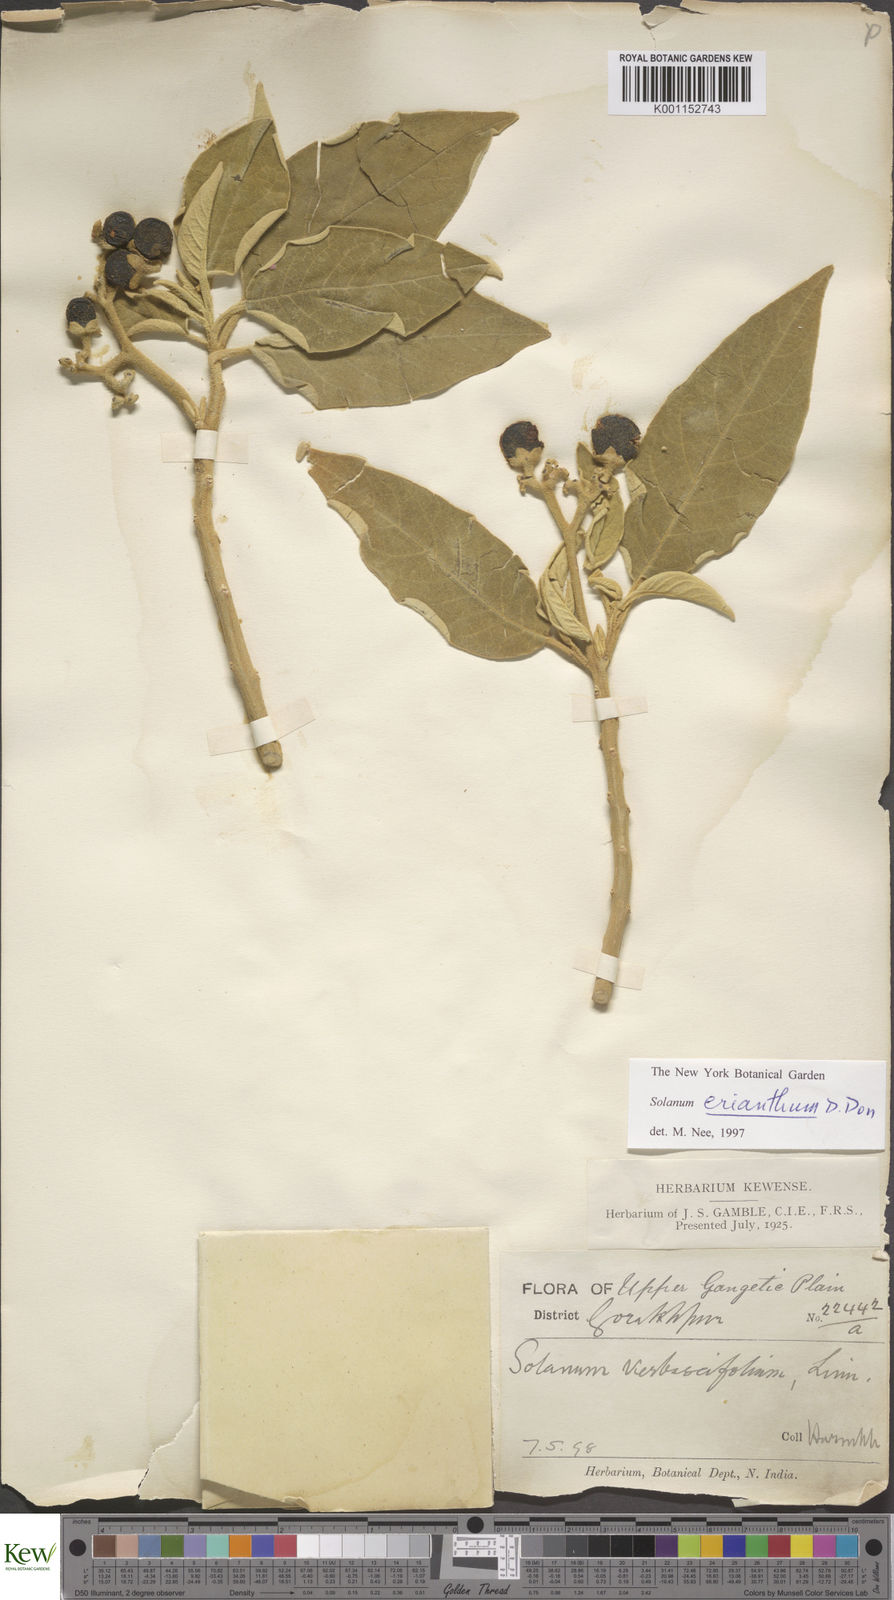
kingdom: Plantae
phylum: Tracheophyta
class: Magnoliopsida
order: Solanales
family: Solanaceae
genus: Solanum
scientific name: Solanum erianthum
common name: Tobacco-tree
